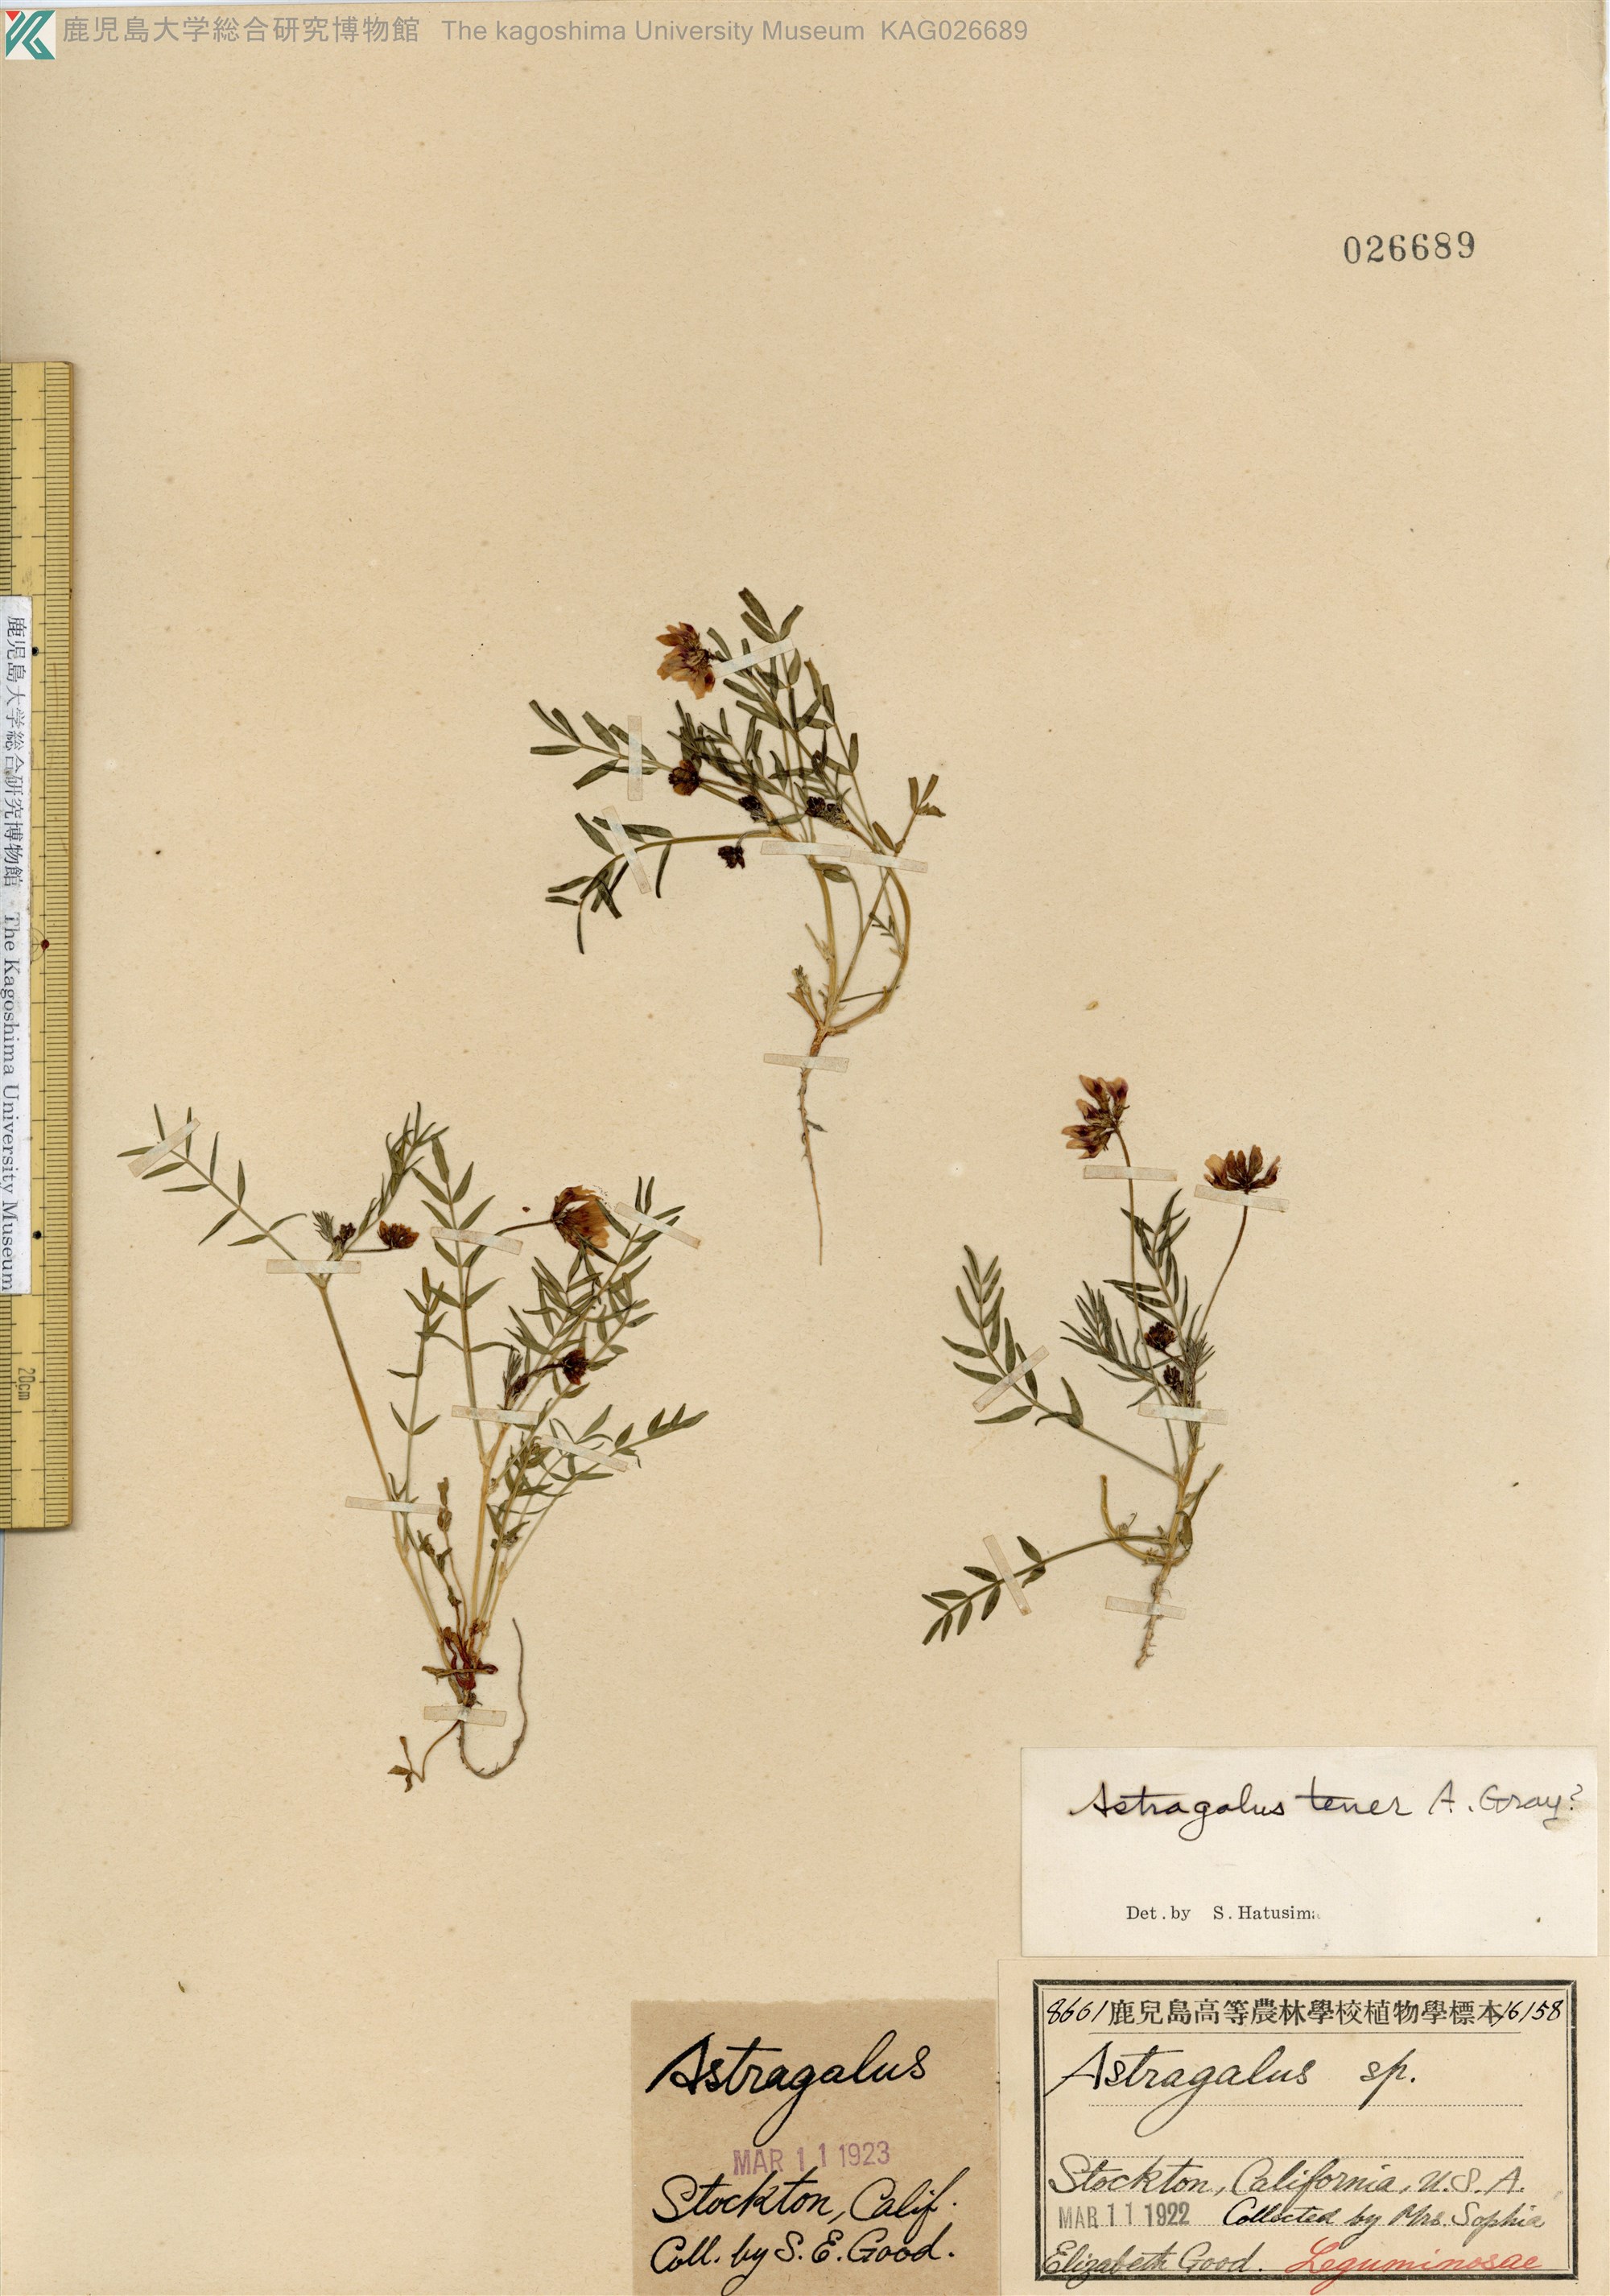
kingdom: Plantae
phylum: Tracheophyta
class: Magnoliopsida
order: Fabales
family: Fabaceae
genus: Astragalus
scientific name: Astragalus tener
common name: Gray slender milkvetch
